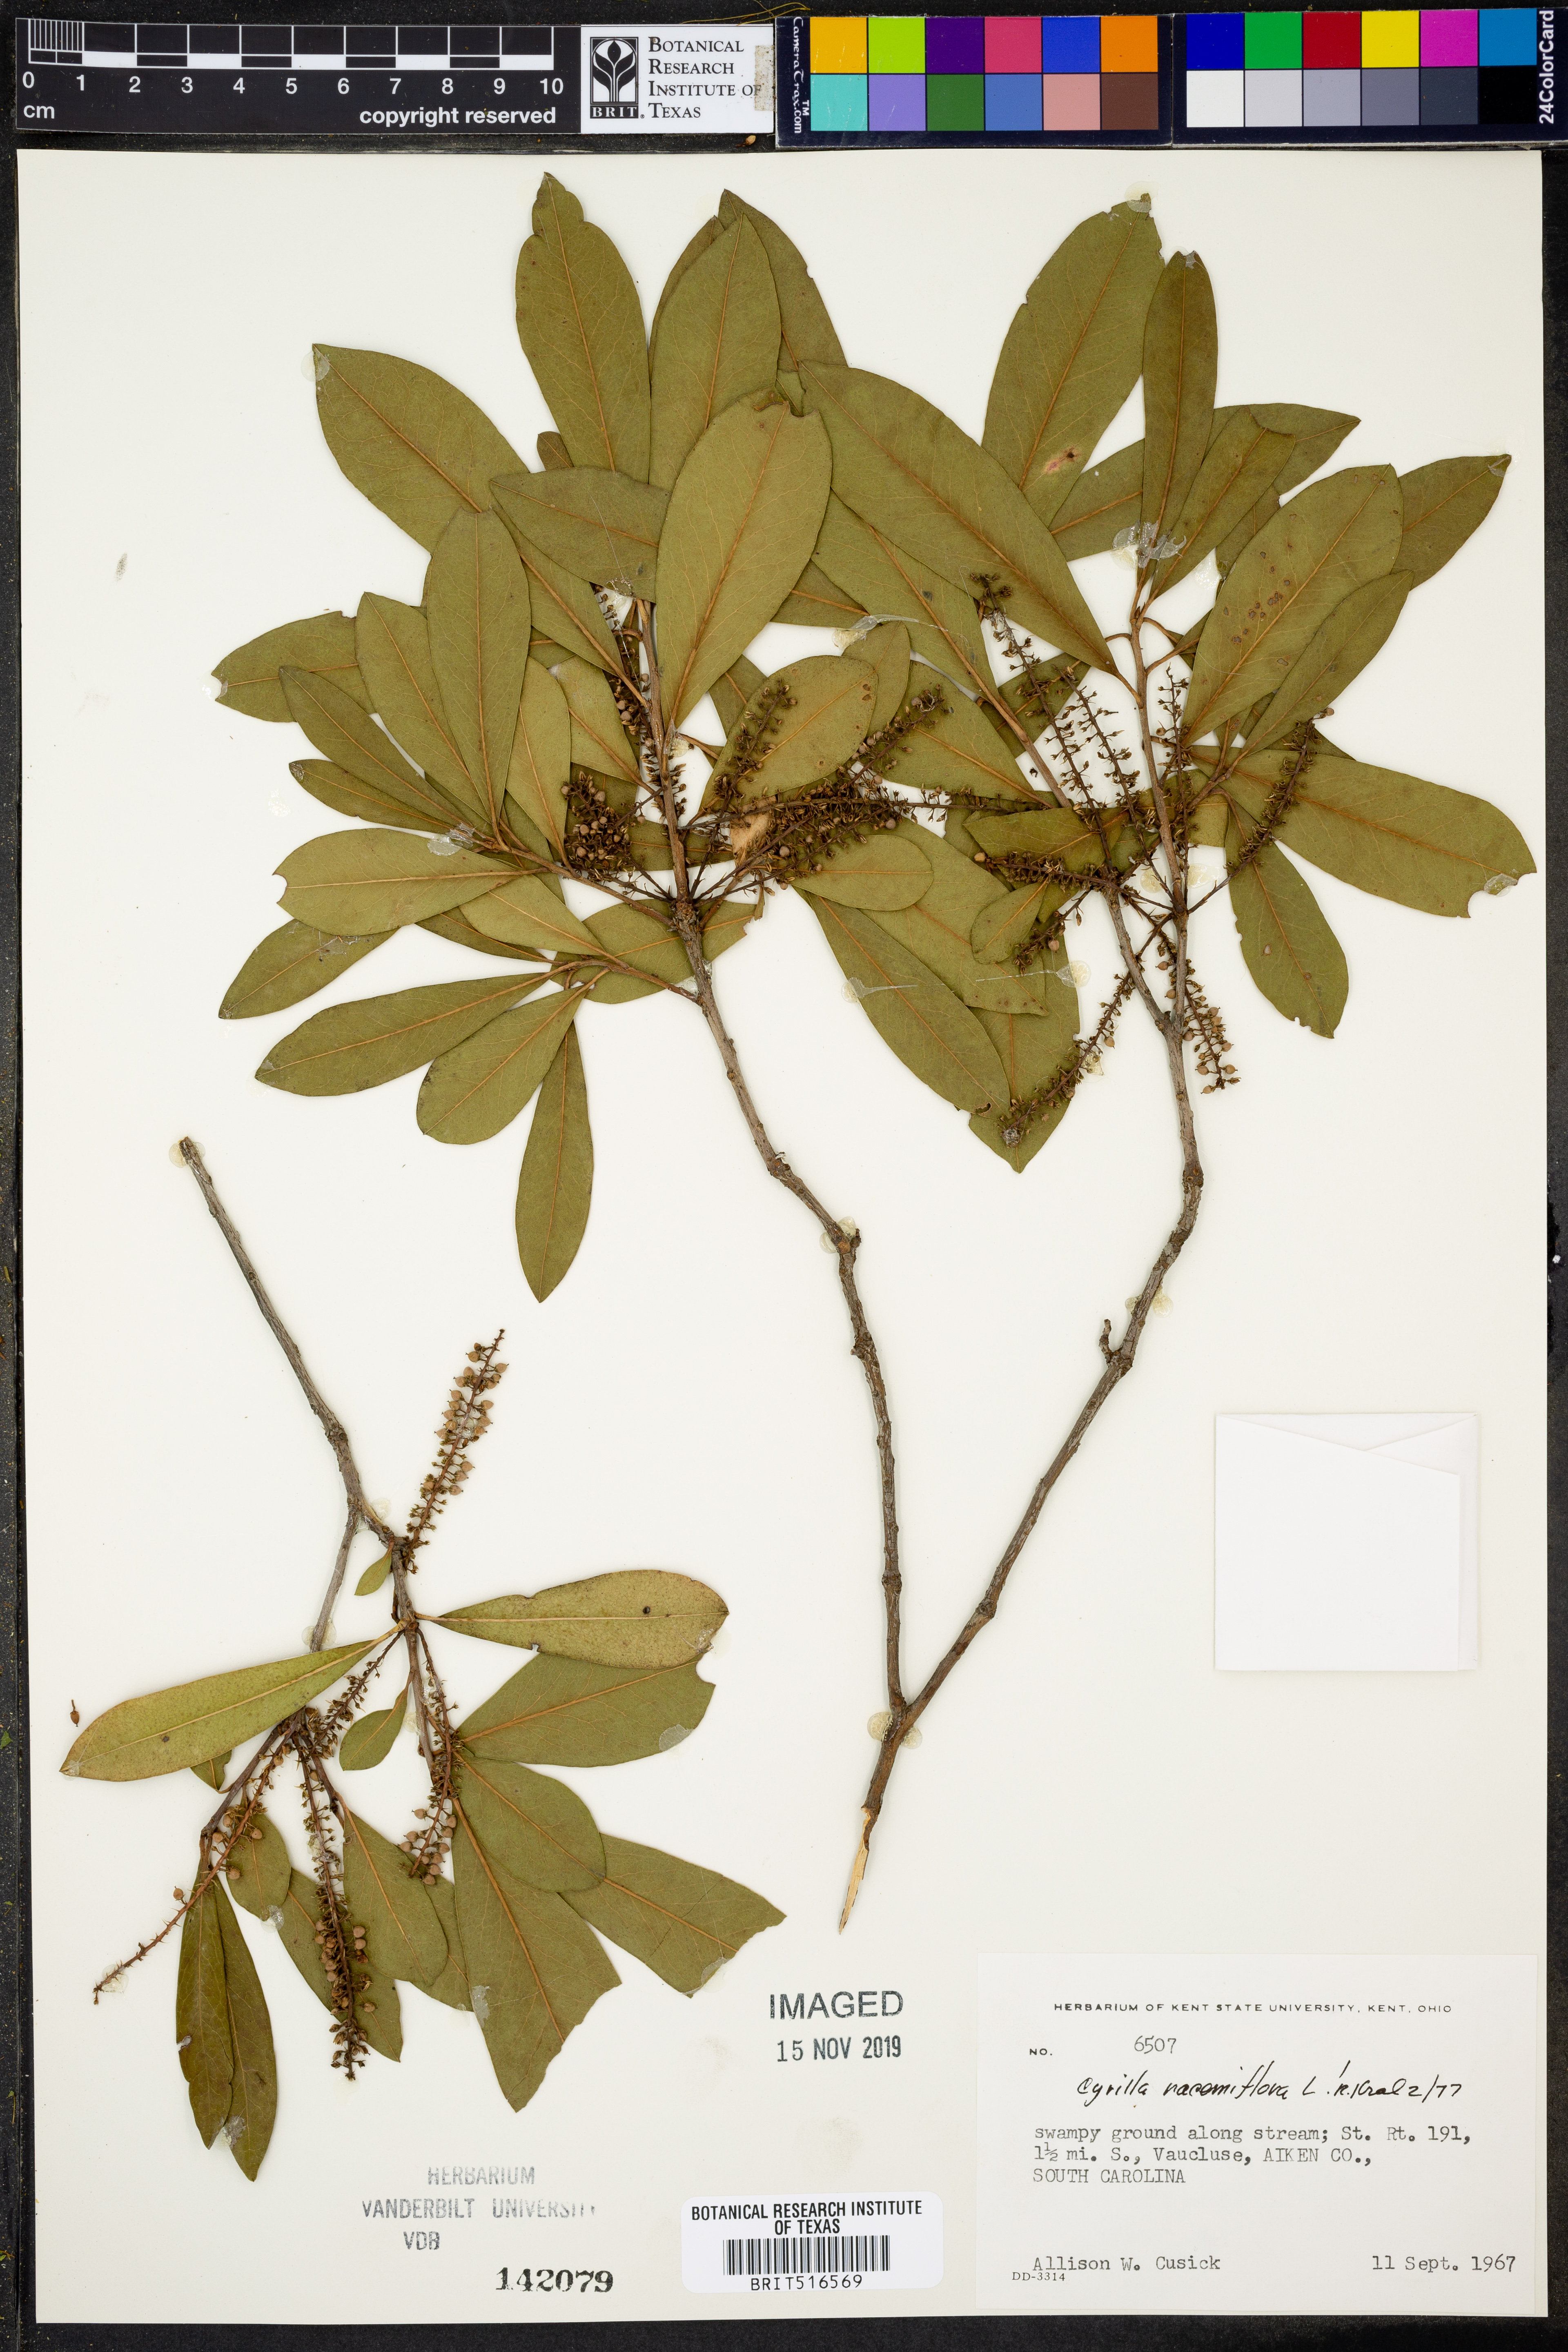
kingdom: Plantae
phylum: Tracheophyta
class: Magnoliopsida
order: Ericales
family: Cyrillaceae
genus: Cyrilla
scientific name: Cyrilla racemiflora
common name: Black titi
